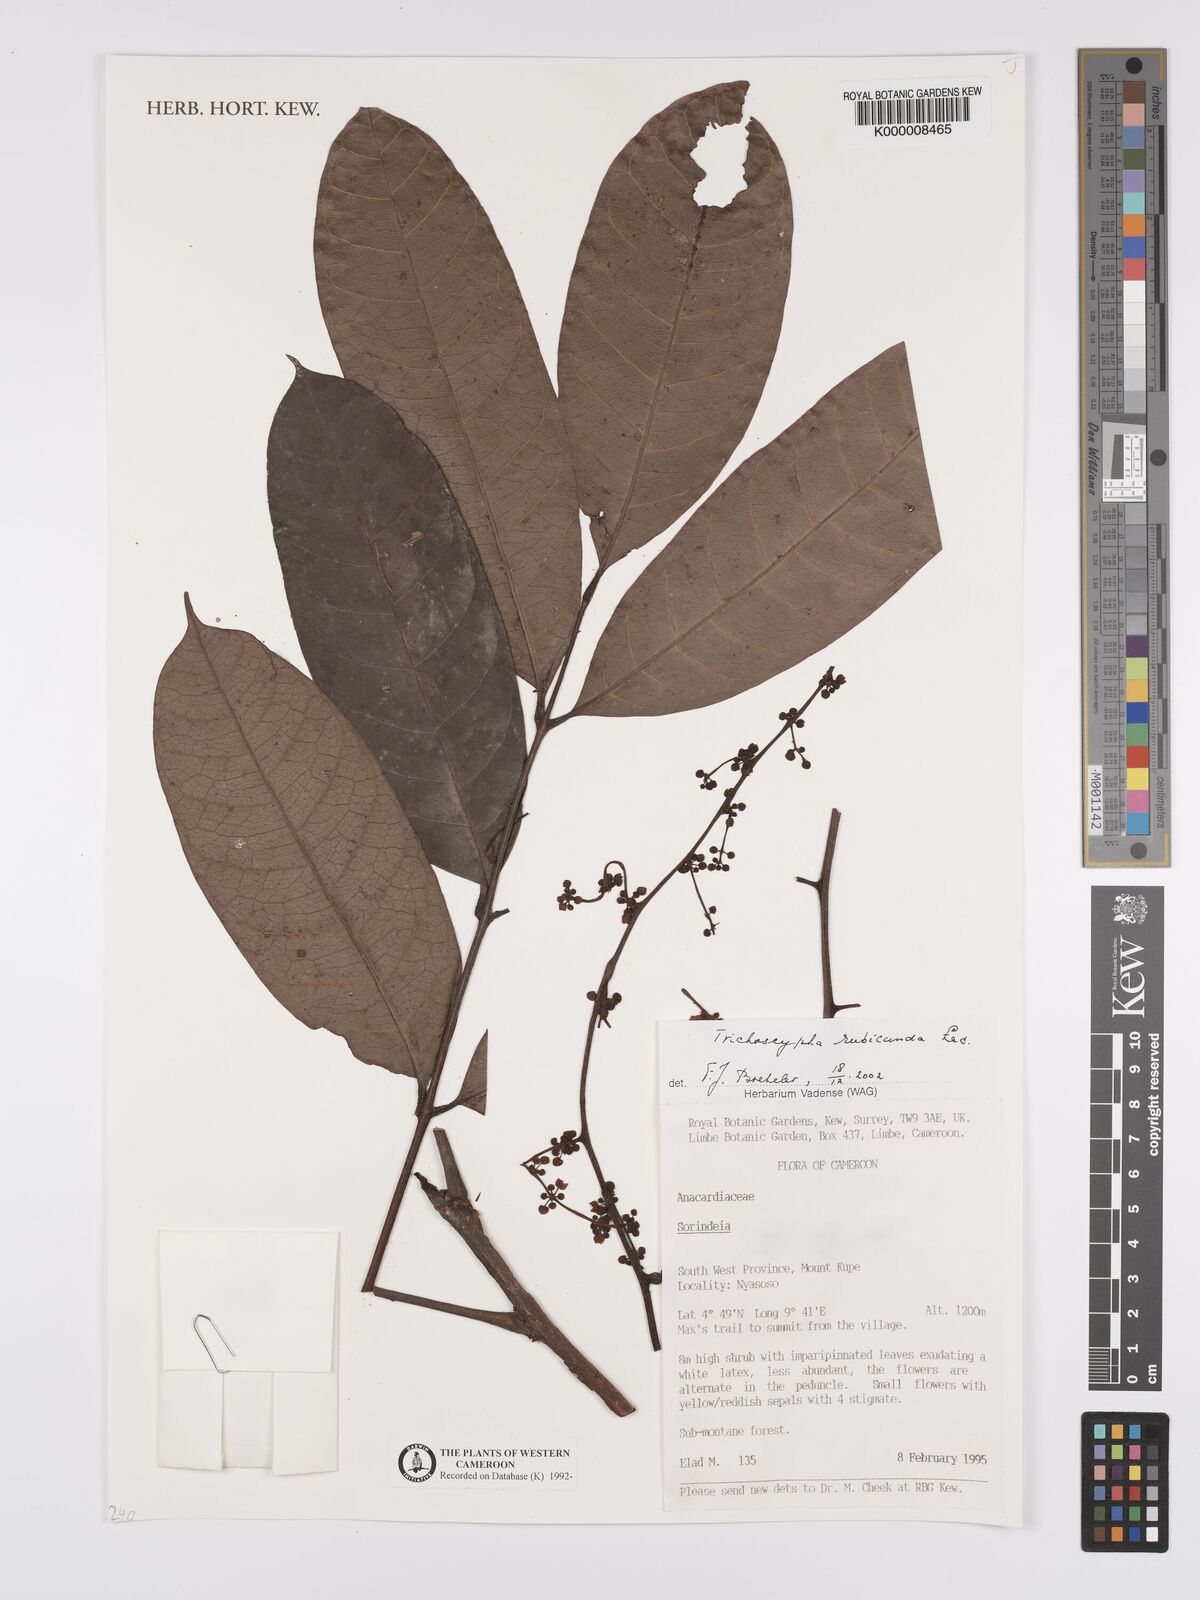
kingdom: Plantae
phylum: Tracheophyta
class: Magnoliopsida
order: Sapindales
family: Anacardiaceae
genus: Trichoscypha
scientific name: Trichoscypha rubicunda
